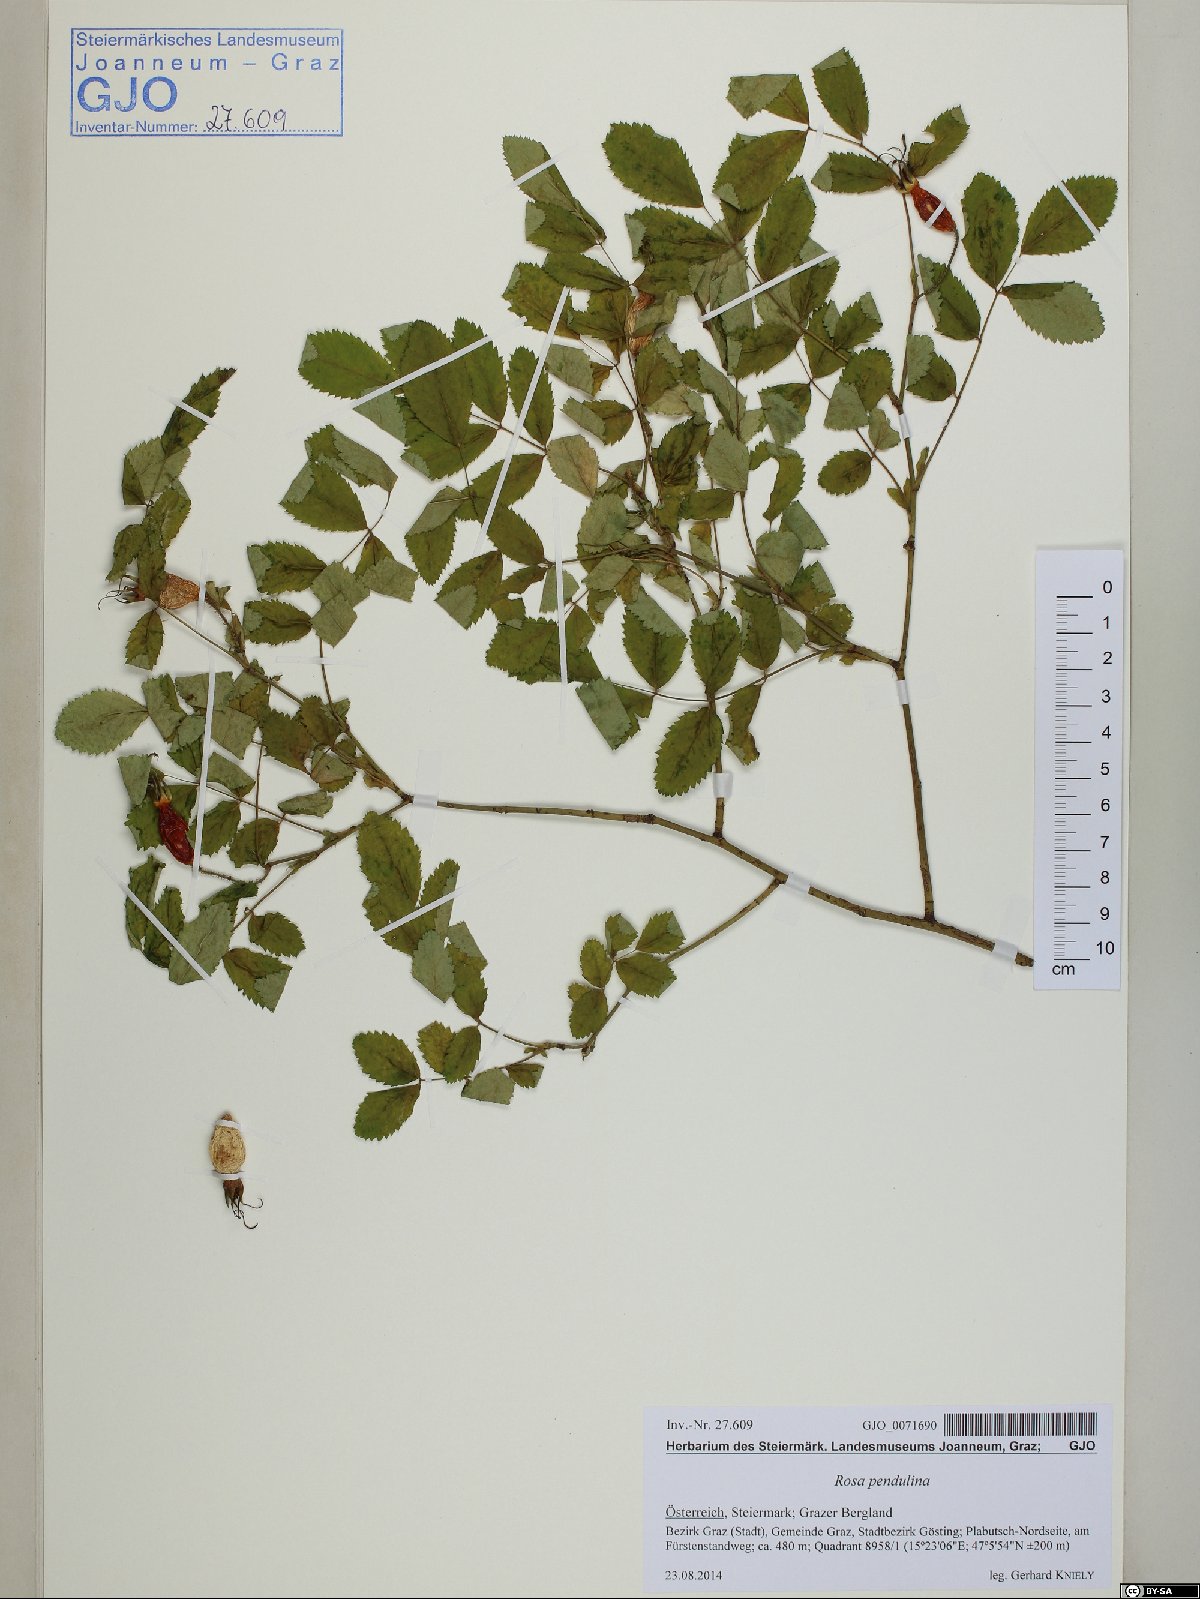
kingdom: Plantae
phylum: Tracheophyta
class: Magnoliopsida
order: Rosales
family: Rosaceae
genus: Rosa
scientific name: Rosa pendulina
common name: Alpine rose
